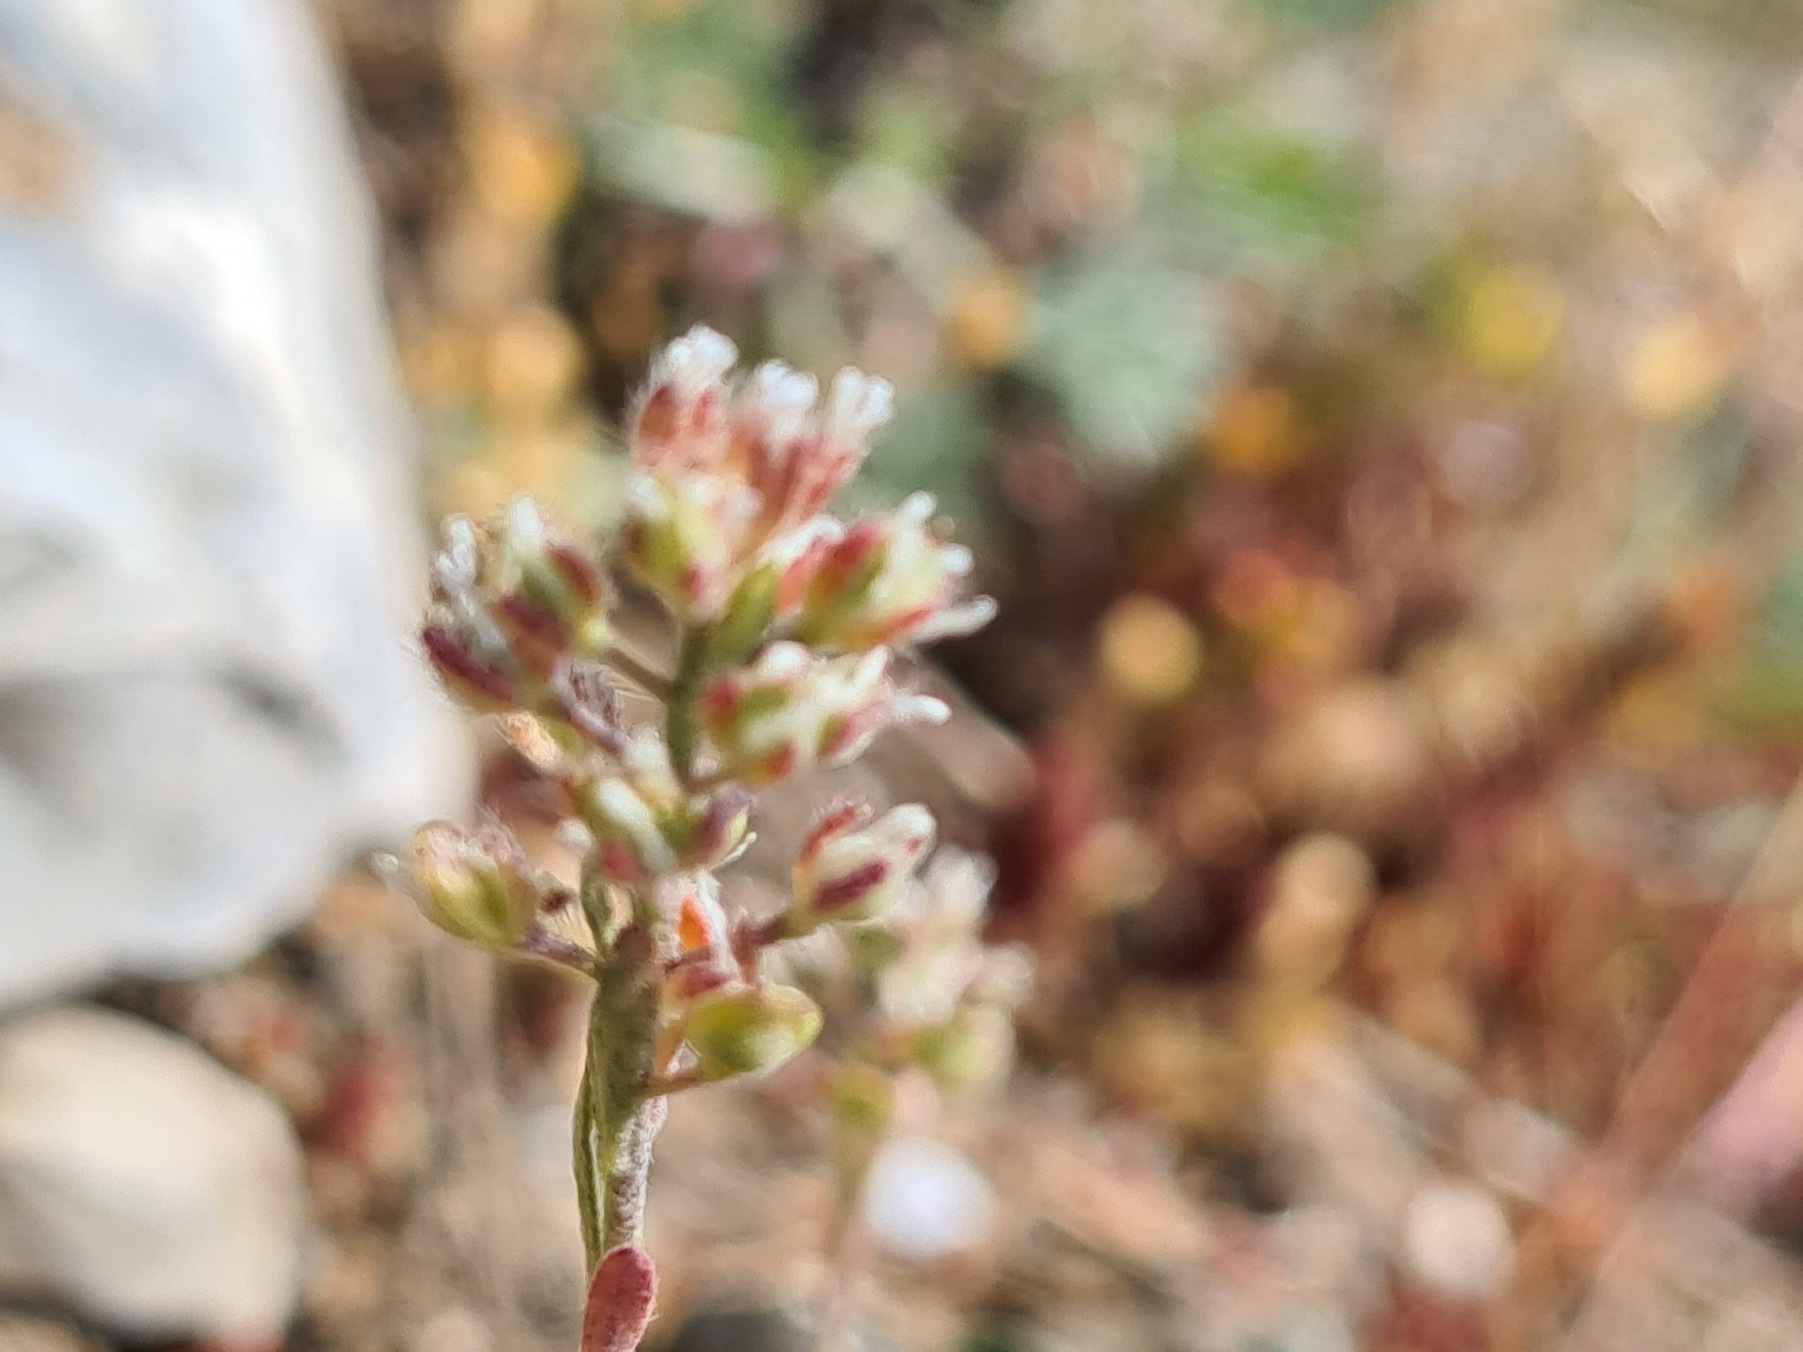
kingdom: Plantae
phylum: Tracheophyta
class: Magnoliopsida
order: Brassicales
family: Brassicaceae
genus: Alyssum
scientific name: Alyssum alyssoides
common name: Grådodder
